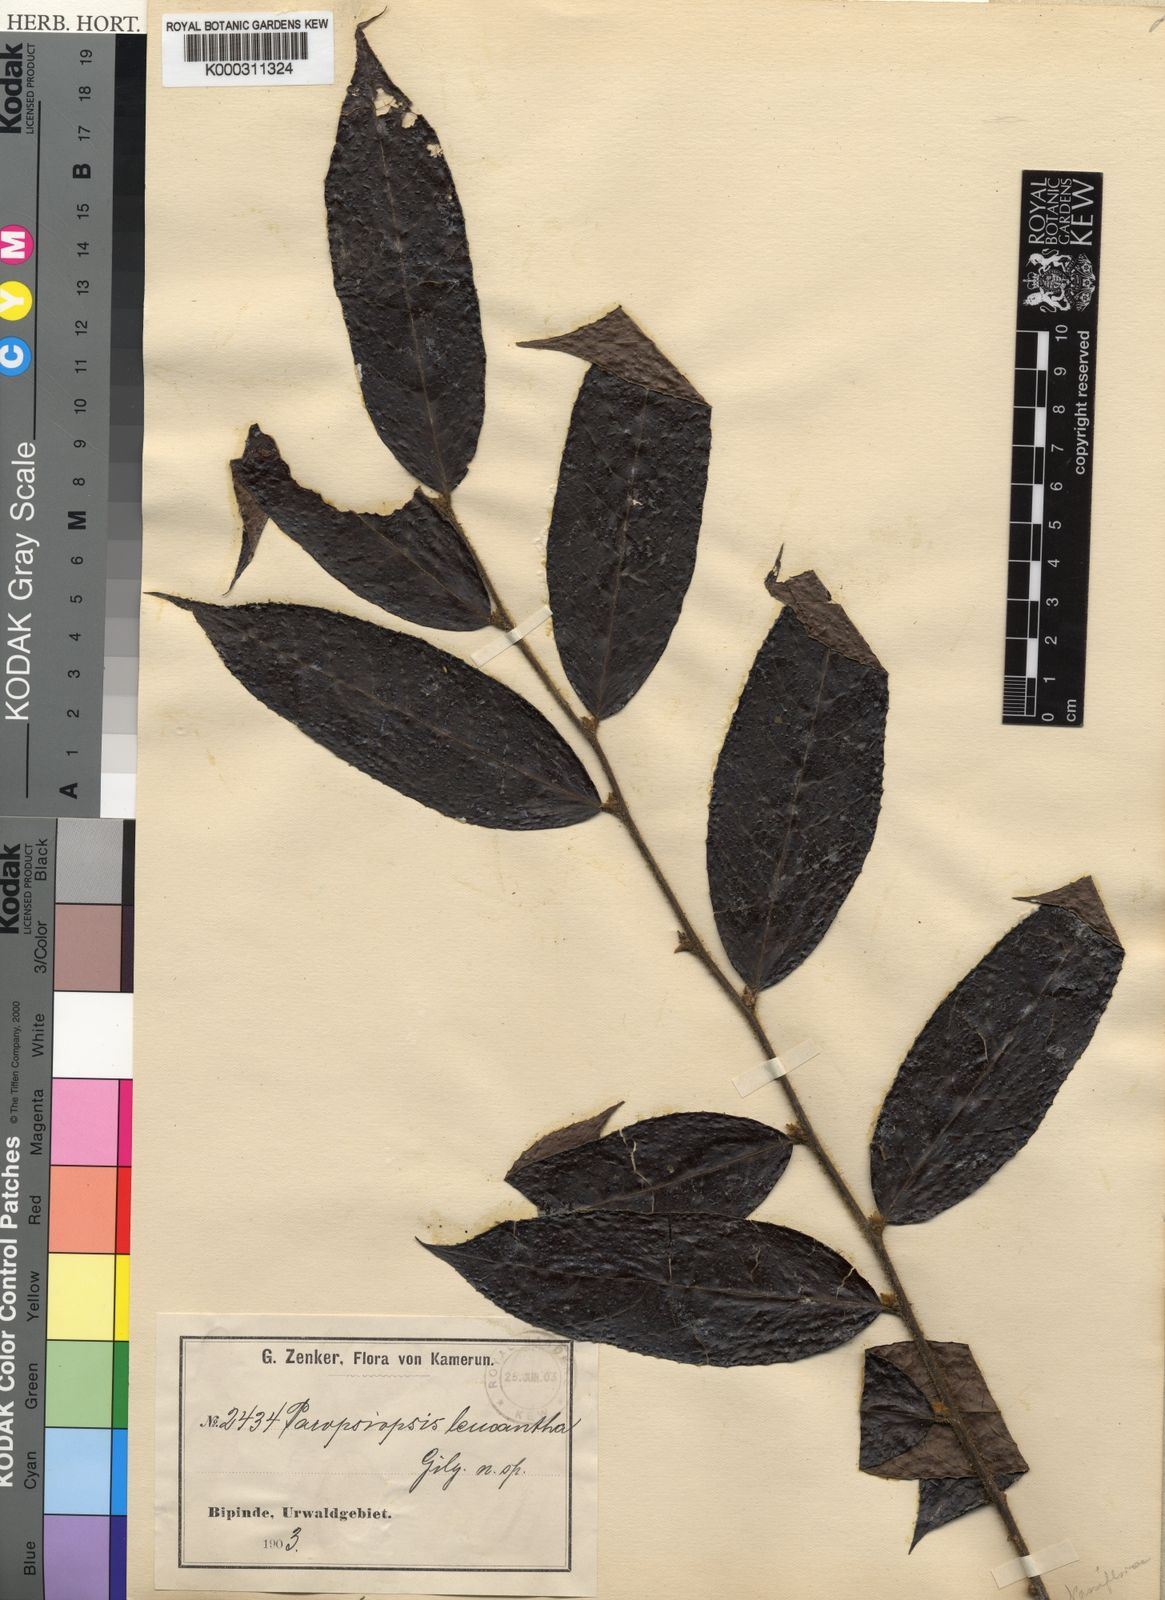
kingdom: Plantae
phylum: Tracheophyta
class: Magnoliopsida
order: Malpighiales
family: Passifloraceae
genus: Paropsiopsis
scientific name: Paropsiopsis decandra
